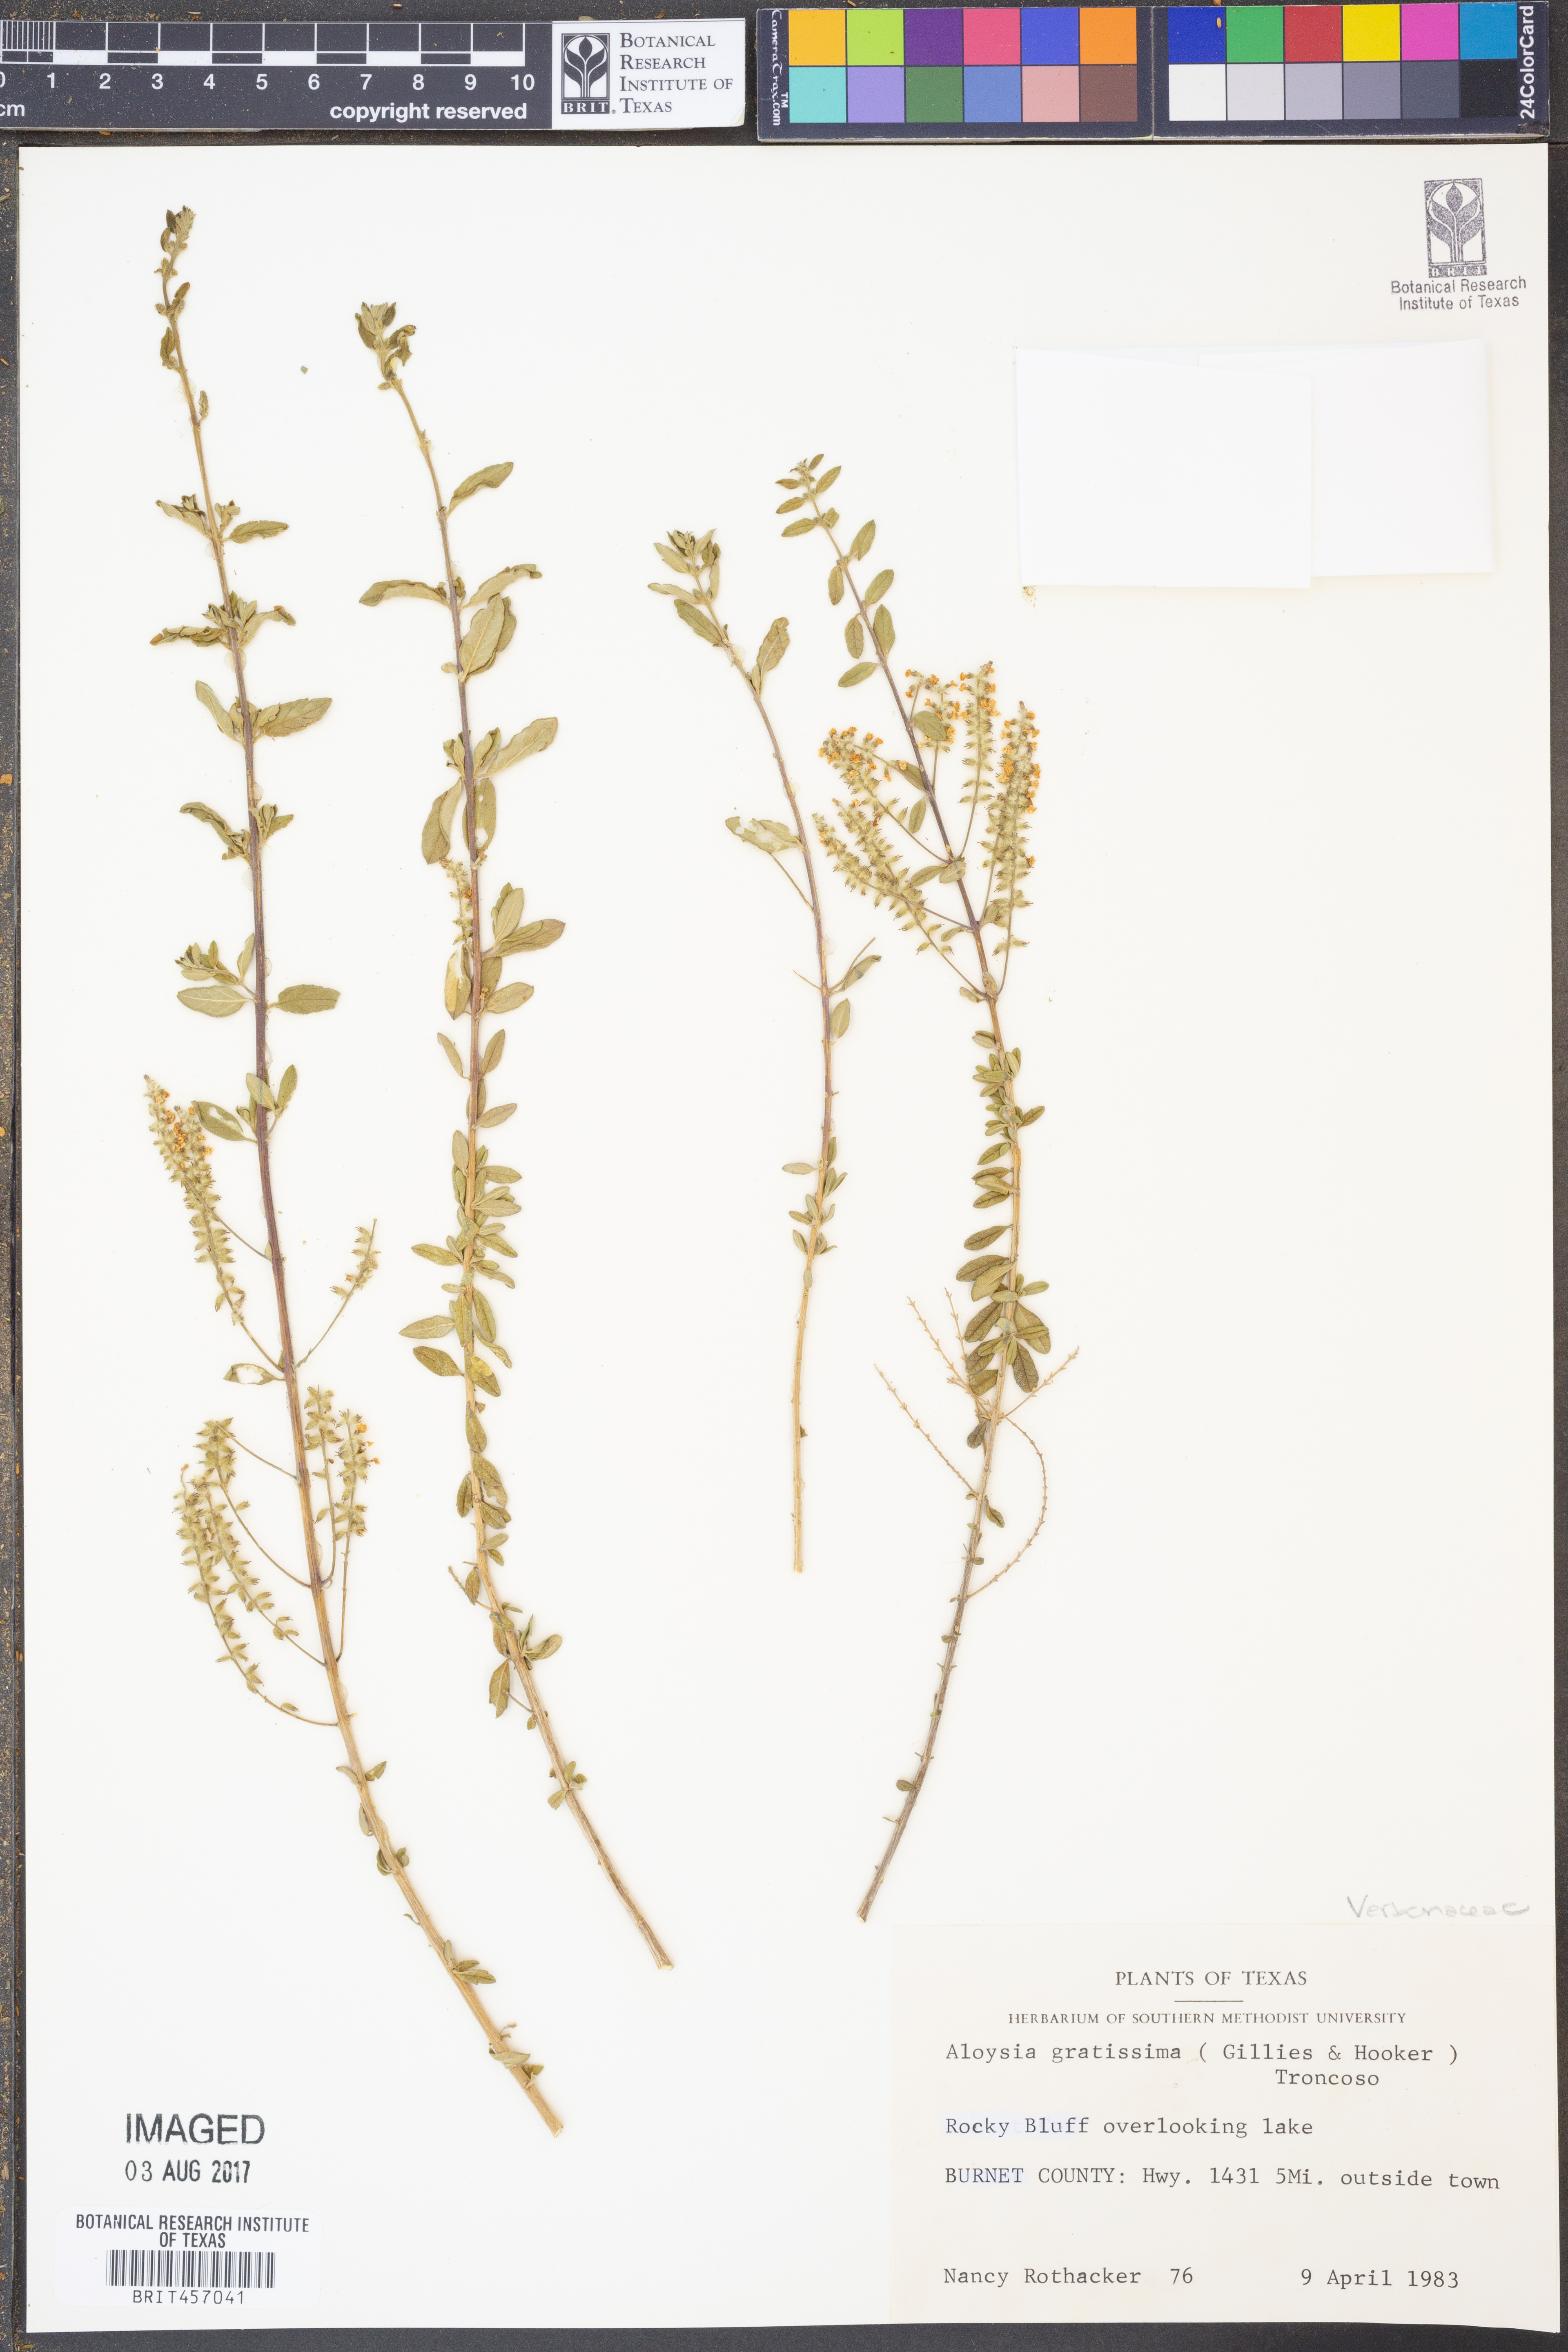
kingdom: Plantae
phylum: Tracheophyta
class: Magnoliopsida
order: Lamiales
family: Verbenaceae
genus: Aloysia
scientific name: Aloysia gratissima
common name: Common bee-brush
